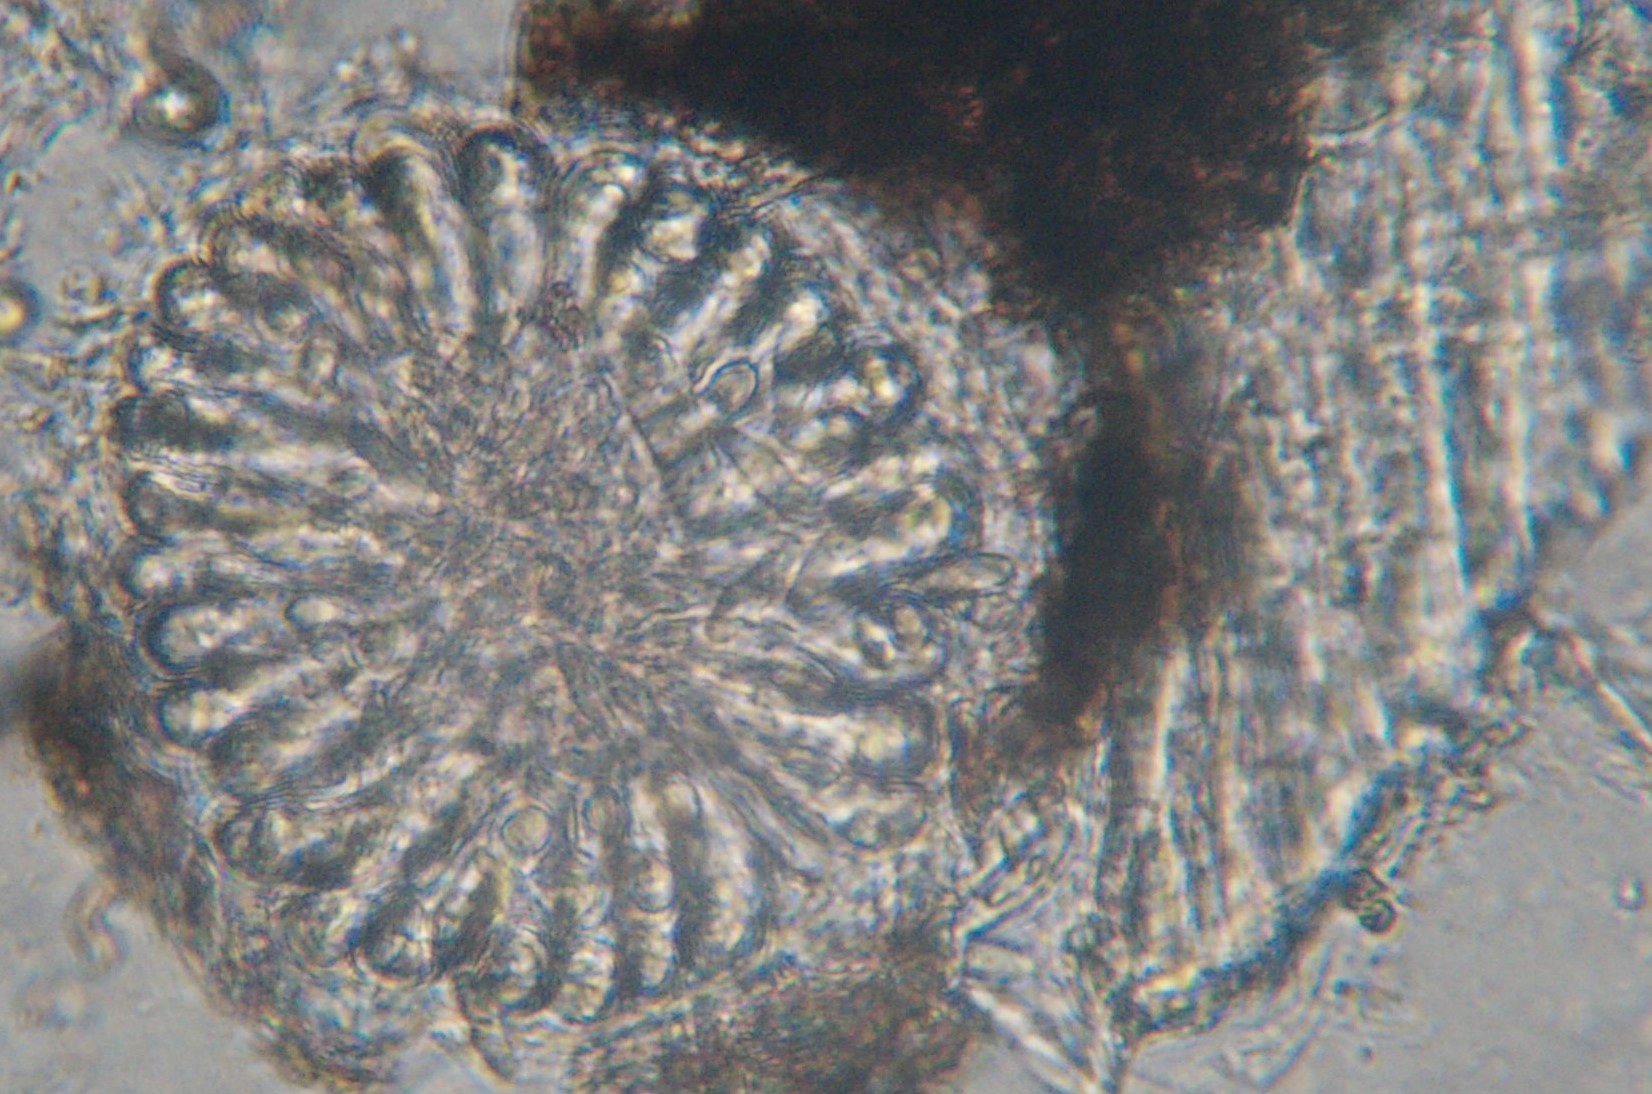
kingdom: Fungi
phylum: Ascomycota
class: Dothideomycetes
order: Mycosphaerellales
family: Mycosphaerellaceae
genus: Mycosphaerella
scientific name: Mycosphaerella superflua
